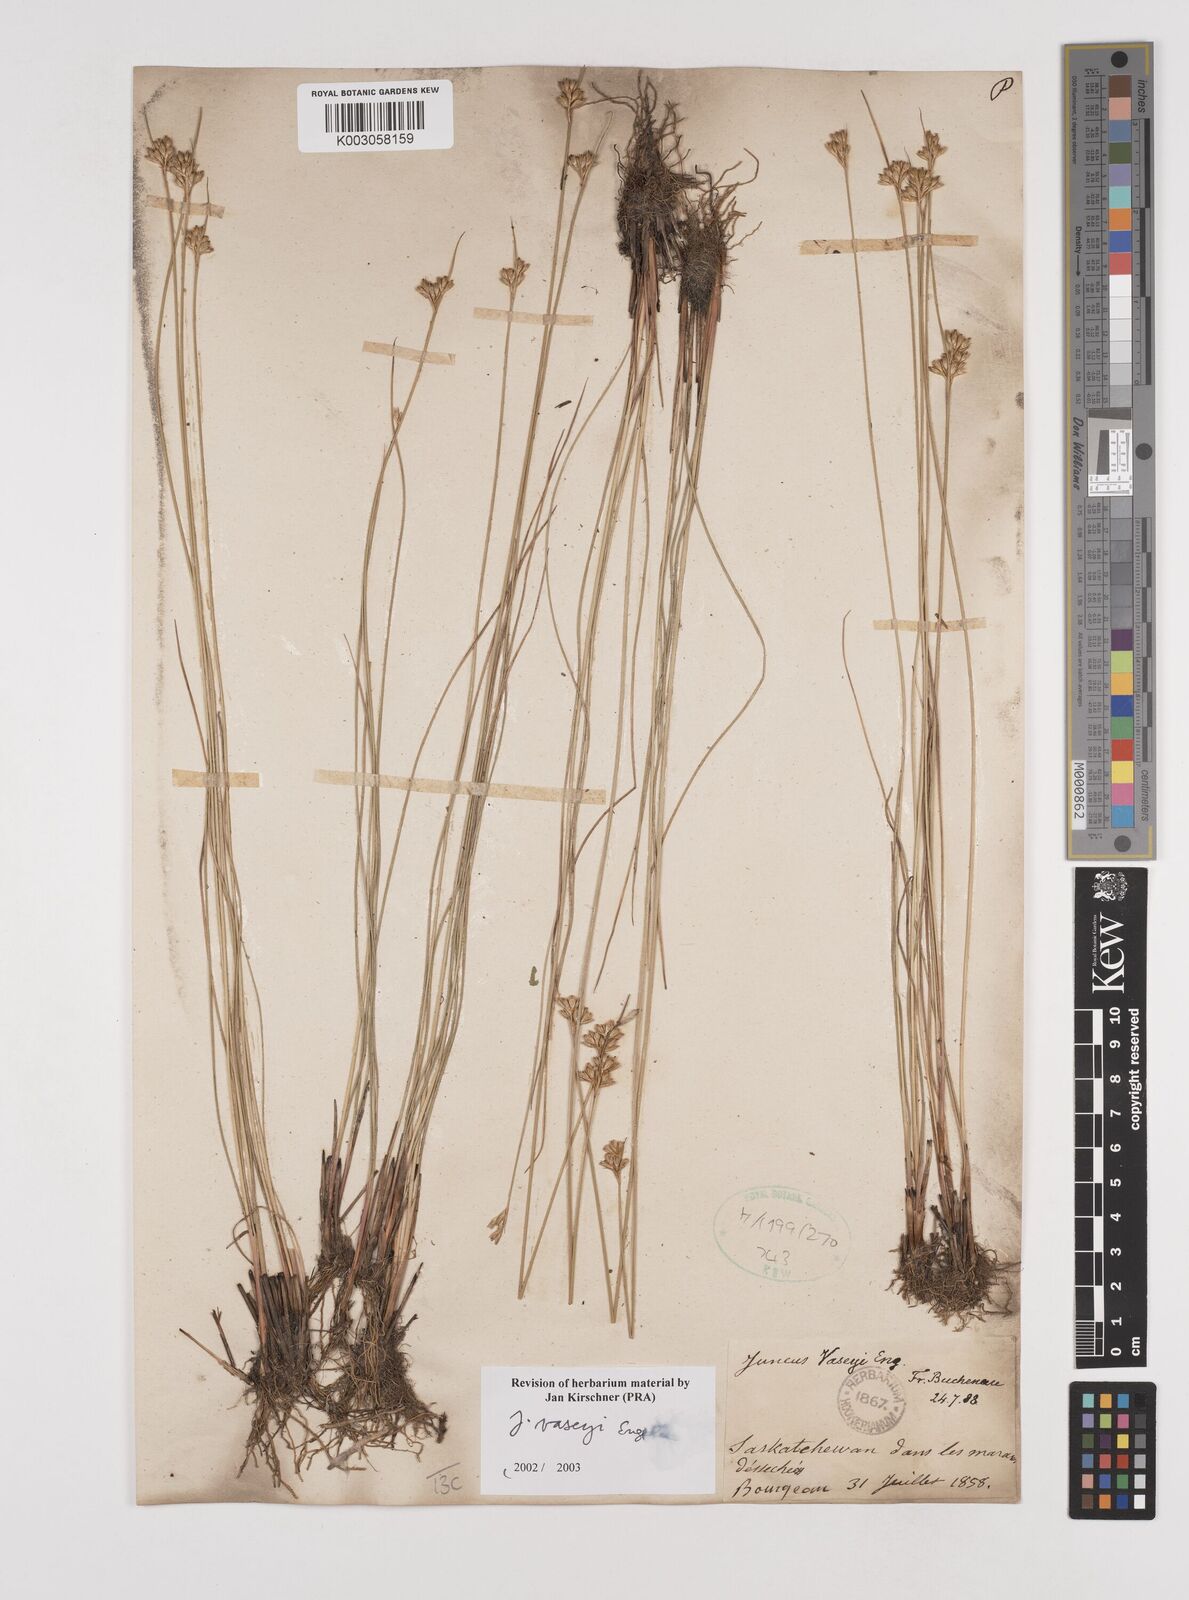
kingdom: Plantae
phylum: Tracheophyta
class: Liliopsida
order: Poales
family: Juncaceae
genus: Juncus
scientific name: Juncus vaseyi
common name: Big-headed rush
